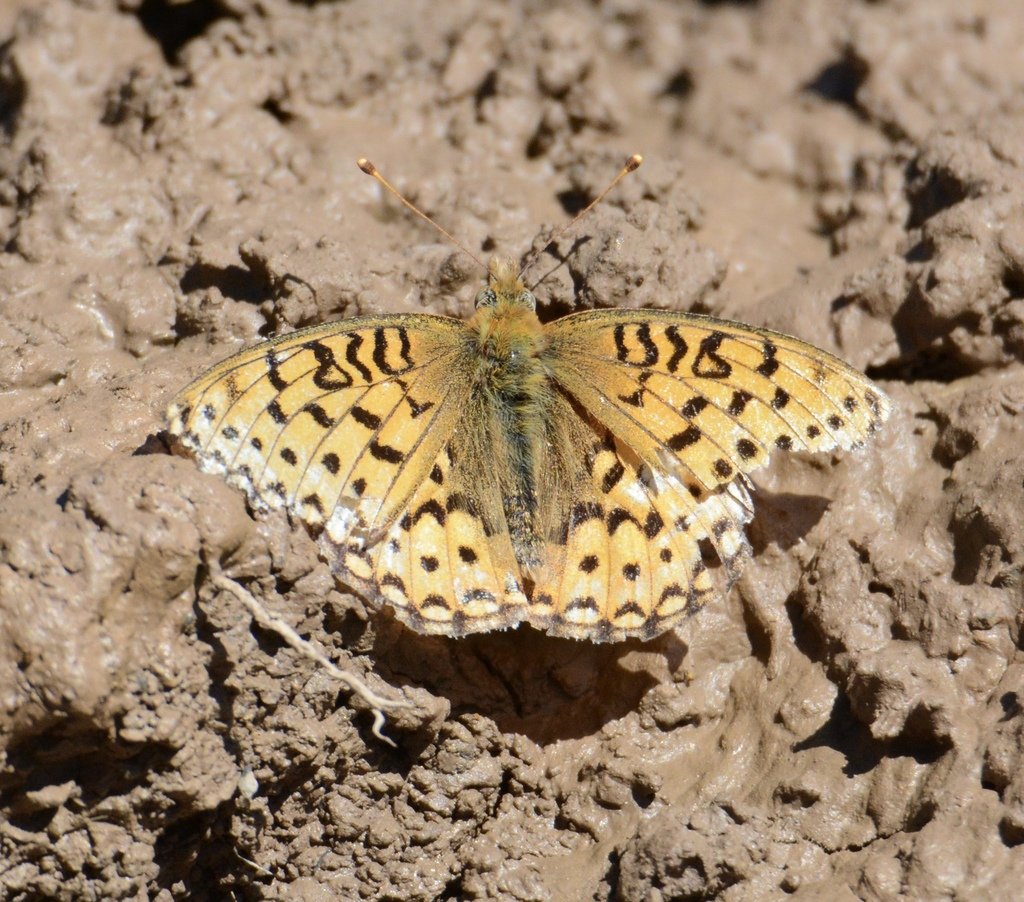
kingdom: Animalia
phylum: Arthropoda
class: Insecta
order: Lepidoptera
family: Nymphalidae
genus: Speyeria
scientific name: Speyeria mormonia
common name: Mormon Fritillary
